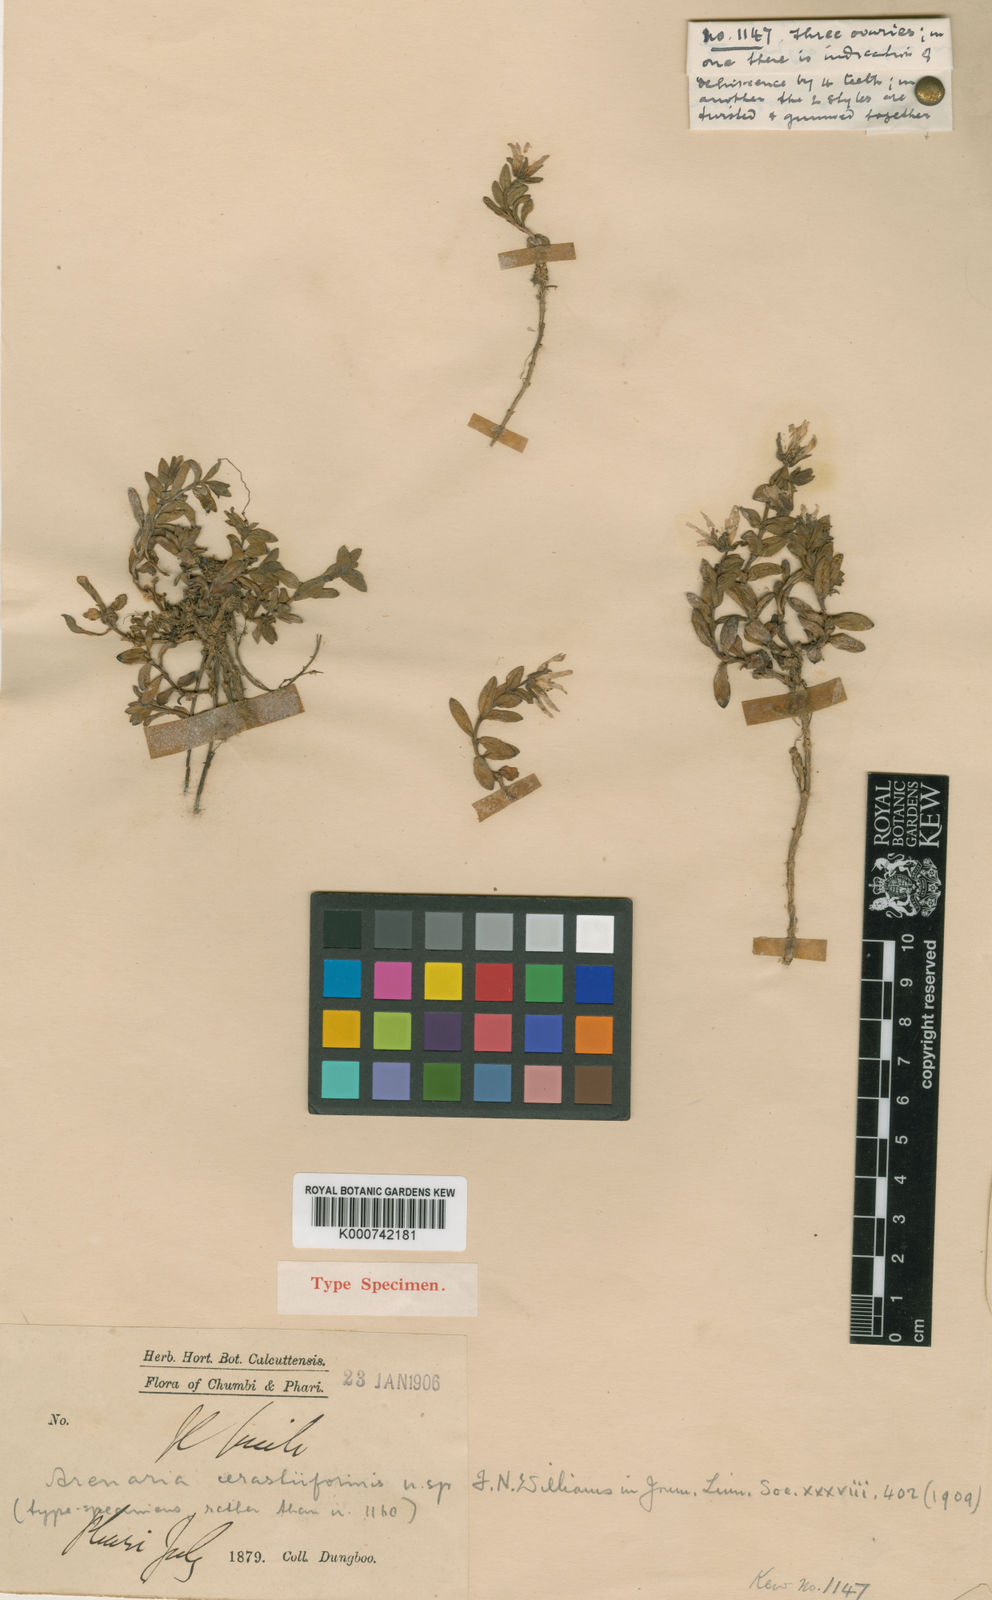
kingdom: Plantae
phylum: Tracheophyta
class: Magnoliopsida
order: Caryophyllales
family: Caryophyllaceae
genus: Shivparvatia
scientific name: Shivparvatia melandryoides
